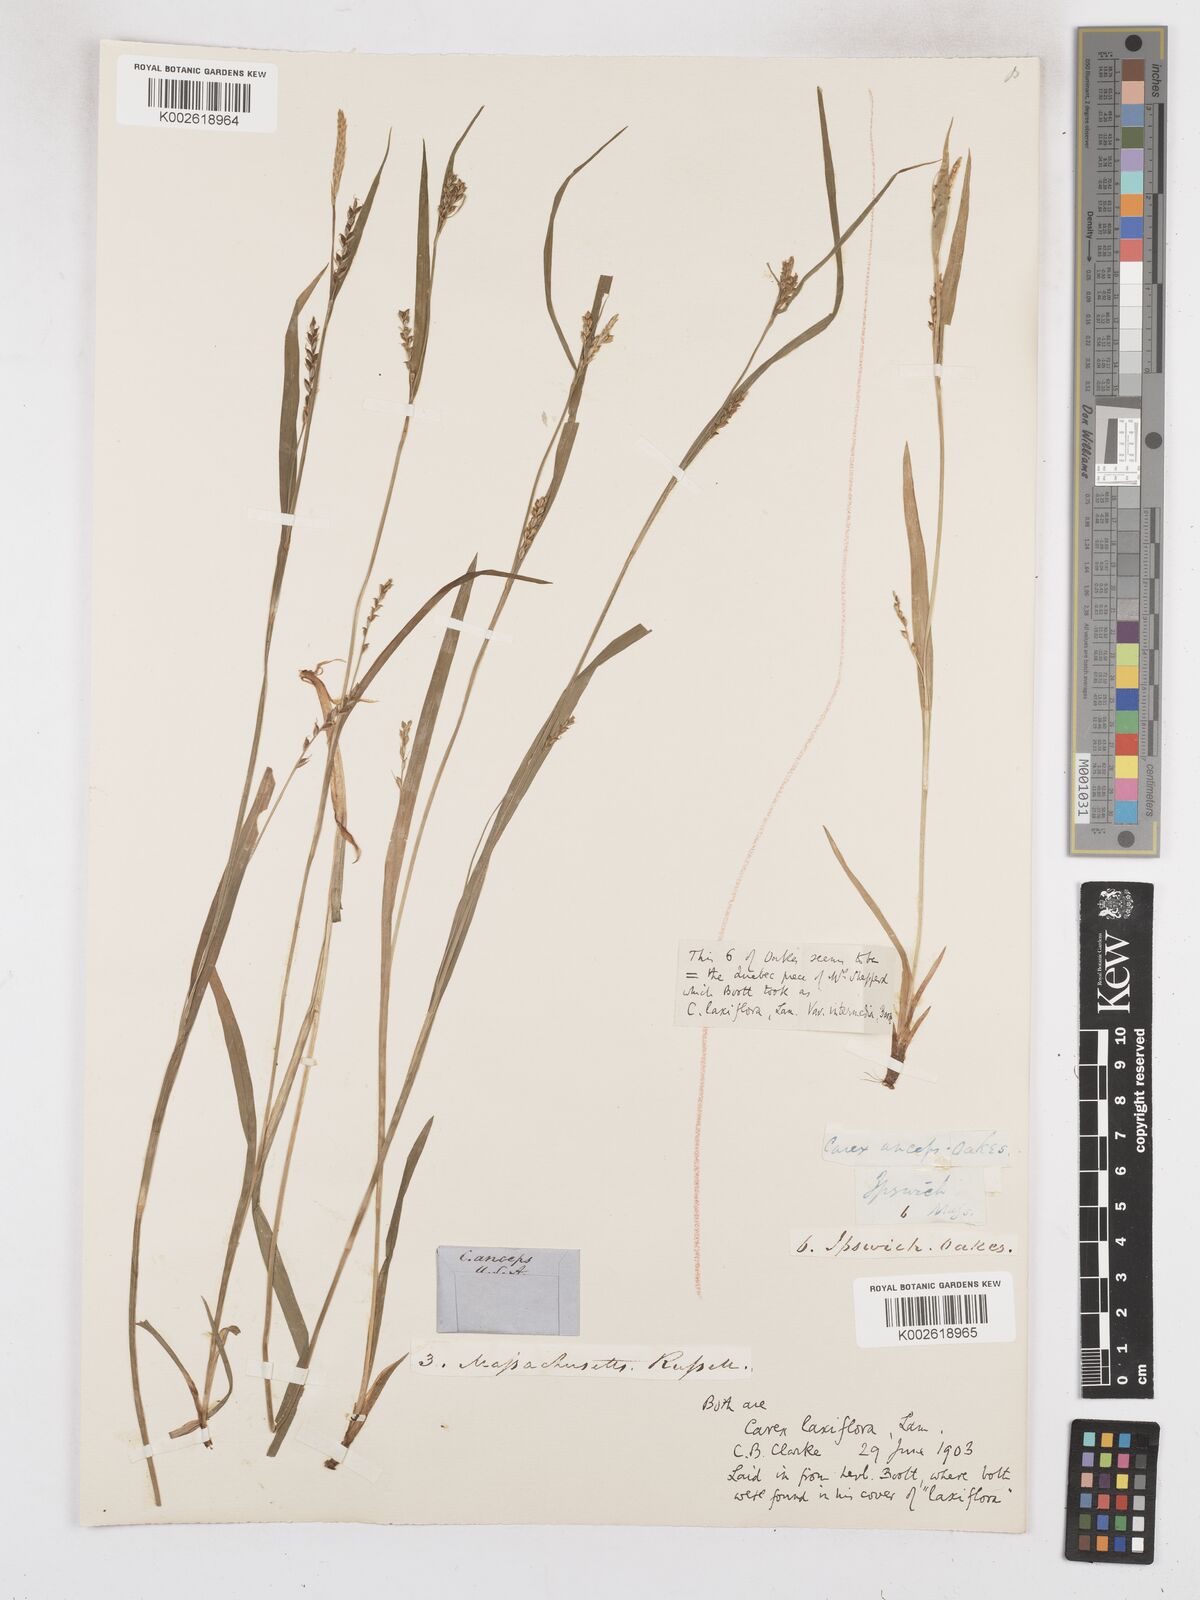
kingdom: Plantae
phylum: Tracheophyta
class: Liliopsida
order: Poales
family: Cyperaceae
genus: Carex
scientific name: Carex laxiflora
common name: Beech wood sedge
